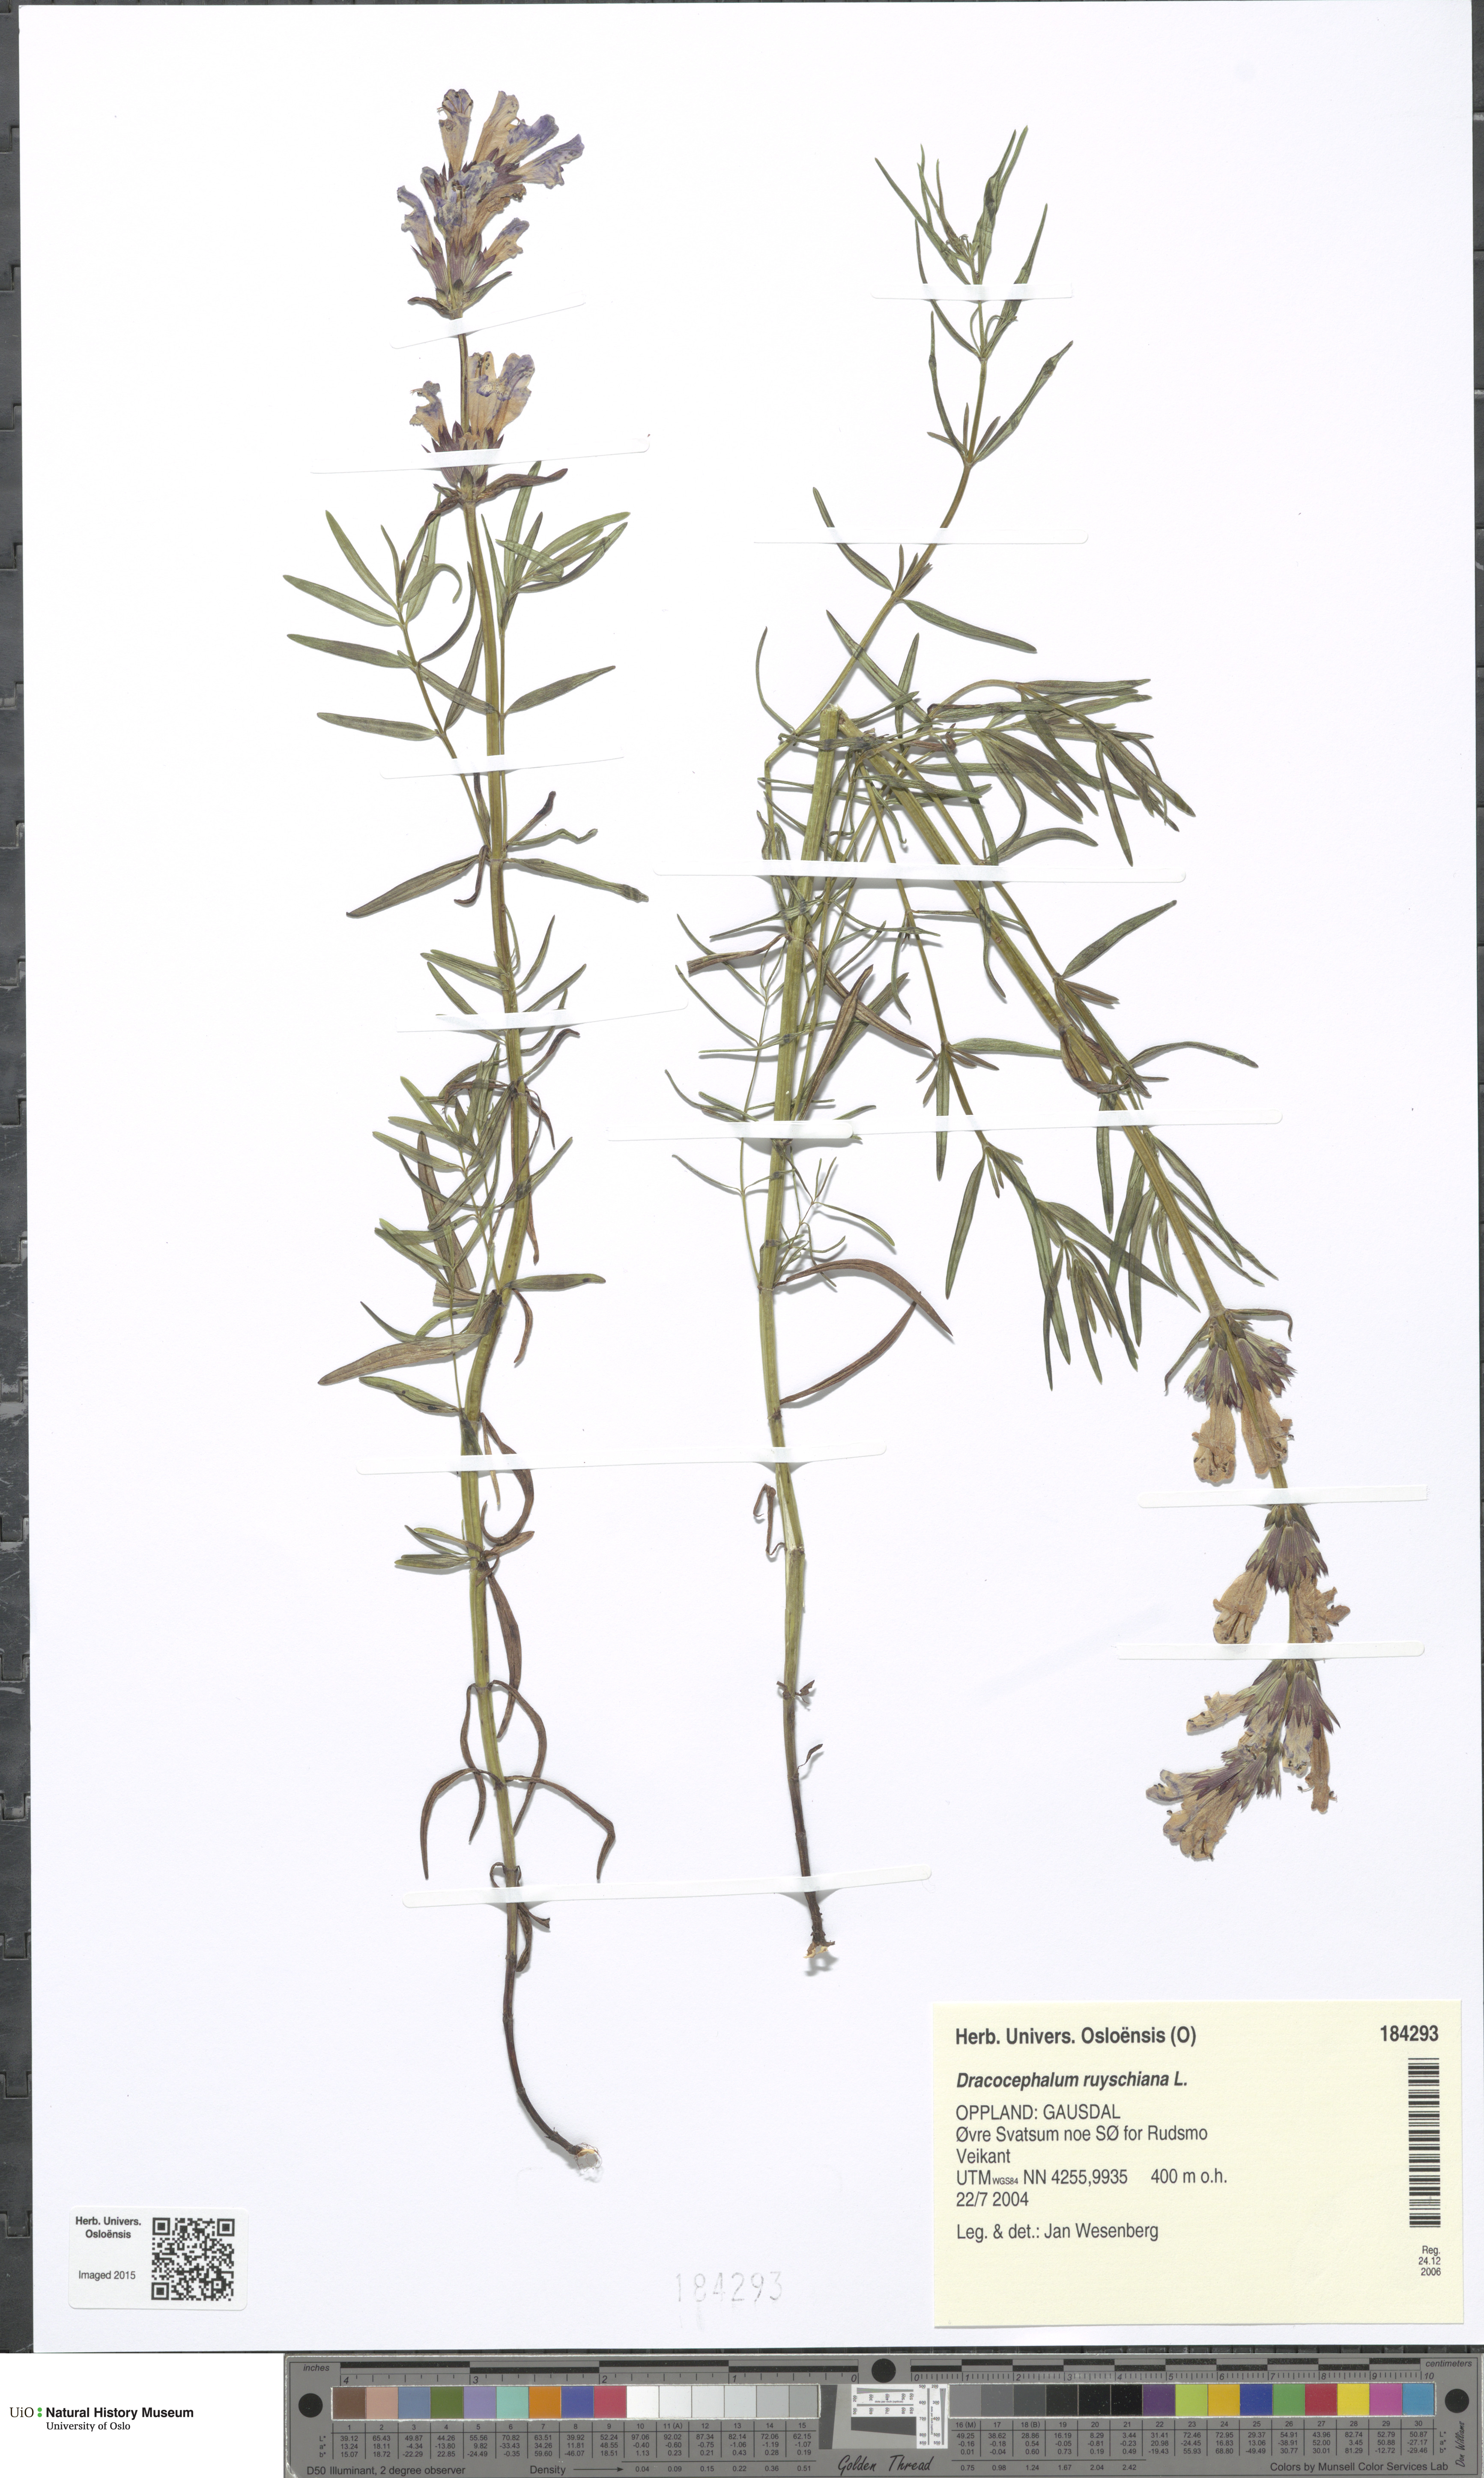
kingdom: Plantae
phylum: Tracheophyta
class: Magnoliopsida
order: Lamiales
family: Lamiaceae
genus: Dracocephalum
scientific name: Dracocephalum ruyschiana
